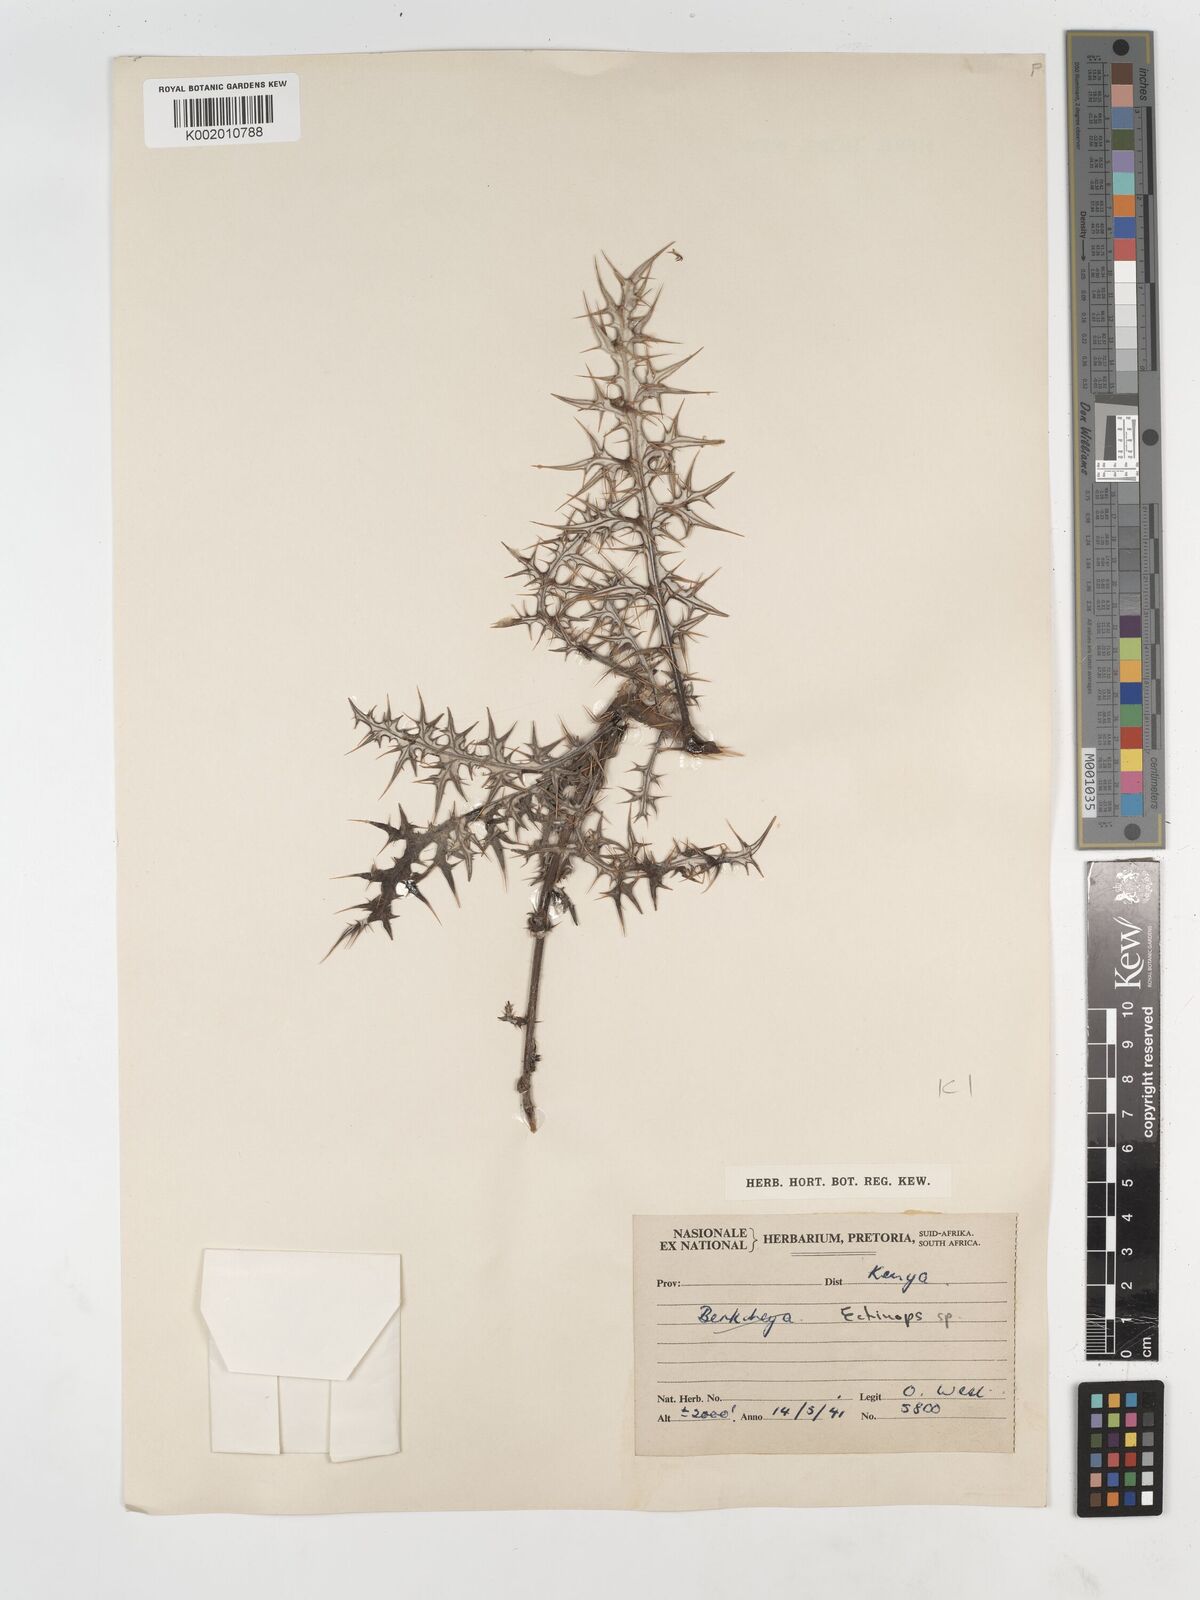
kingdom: Plantae
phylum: Tracheophyta
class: Magnoliopsida
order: Asterales
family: Asteraceae
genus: Echinops
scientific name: Echinops pappii
